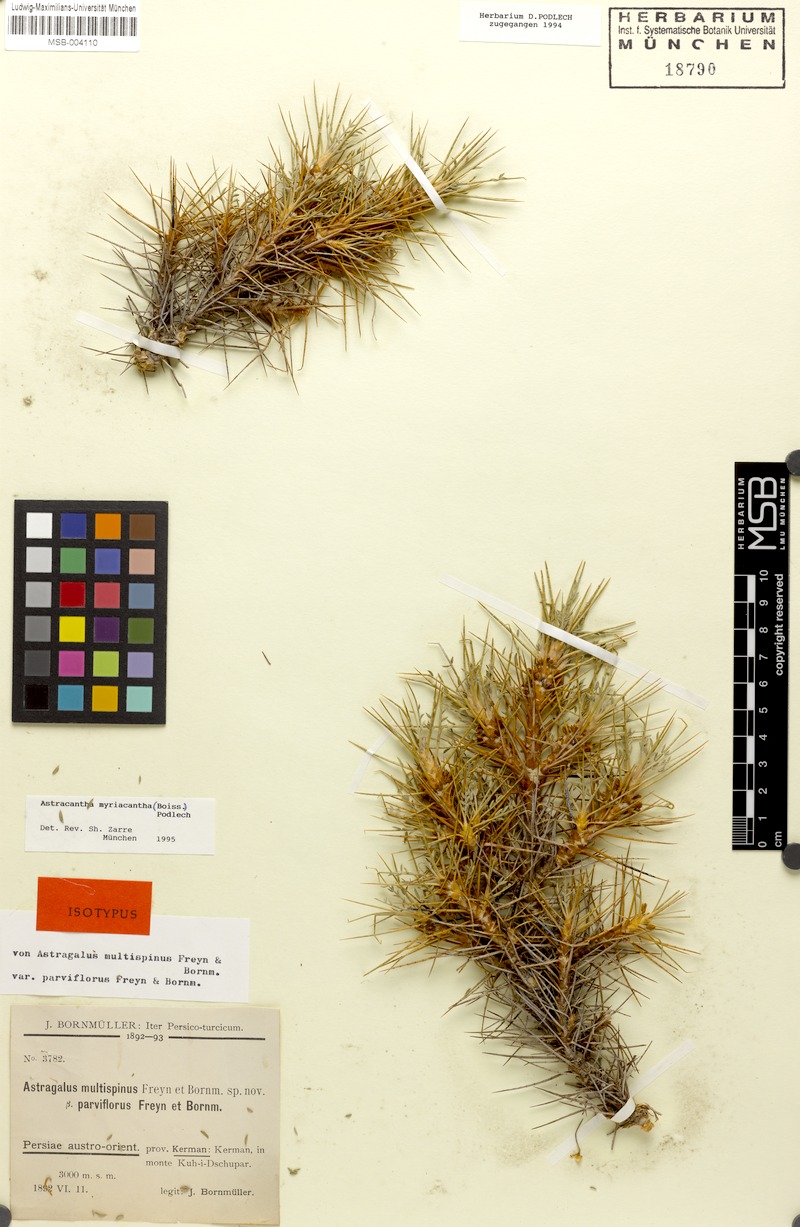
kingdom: Plantae
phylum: Tracheophyta
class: Magnoliopsida
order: Fabales
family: Fabaceae
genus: Astragalus
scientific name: Astragalus myriacanthus
